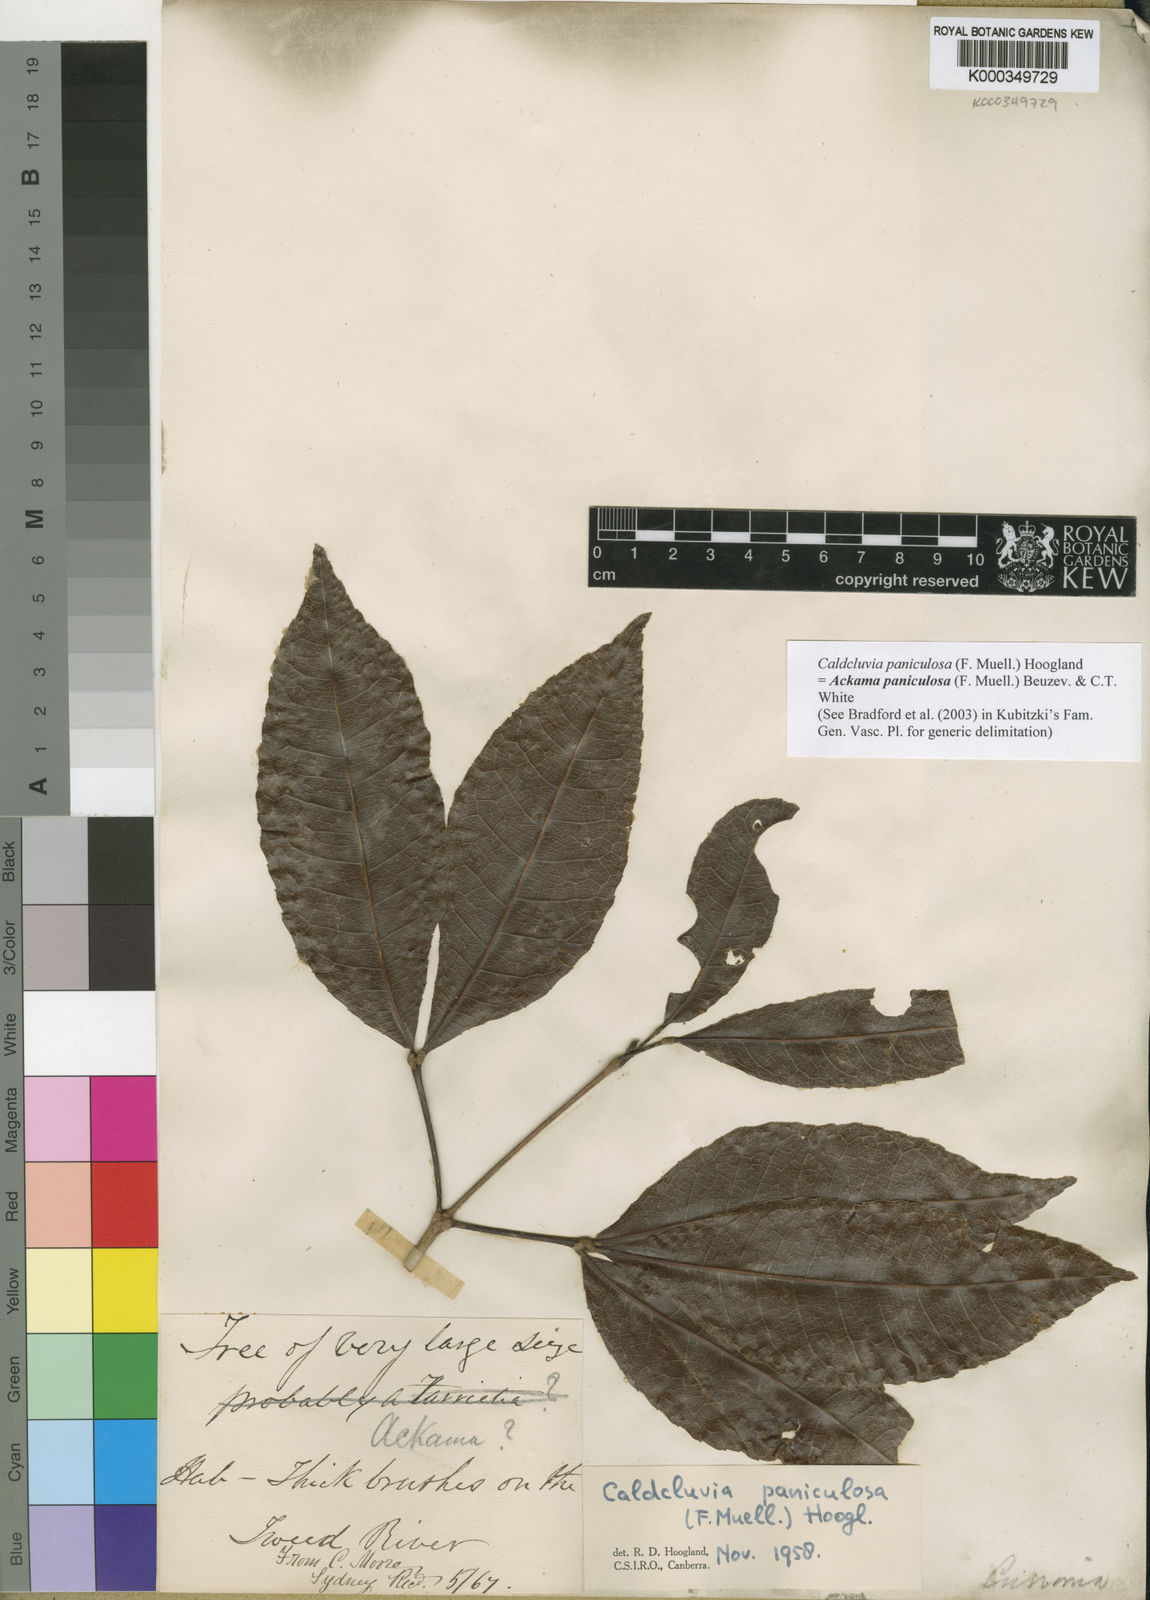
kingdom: Plantae
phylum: Tracheophyta
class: Magnoliopsida
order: Oxalidales
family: Cunoniaceae
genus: Ackama
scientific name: Ackama paniculosa
